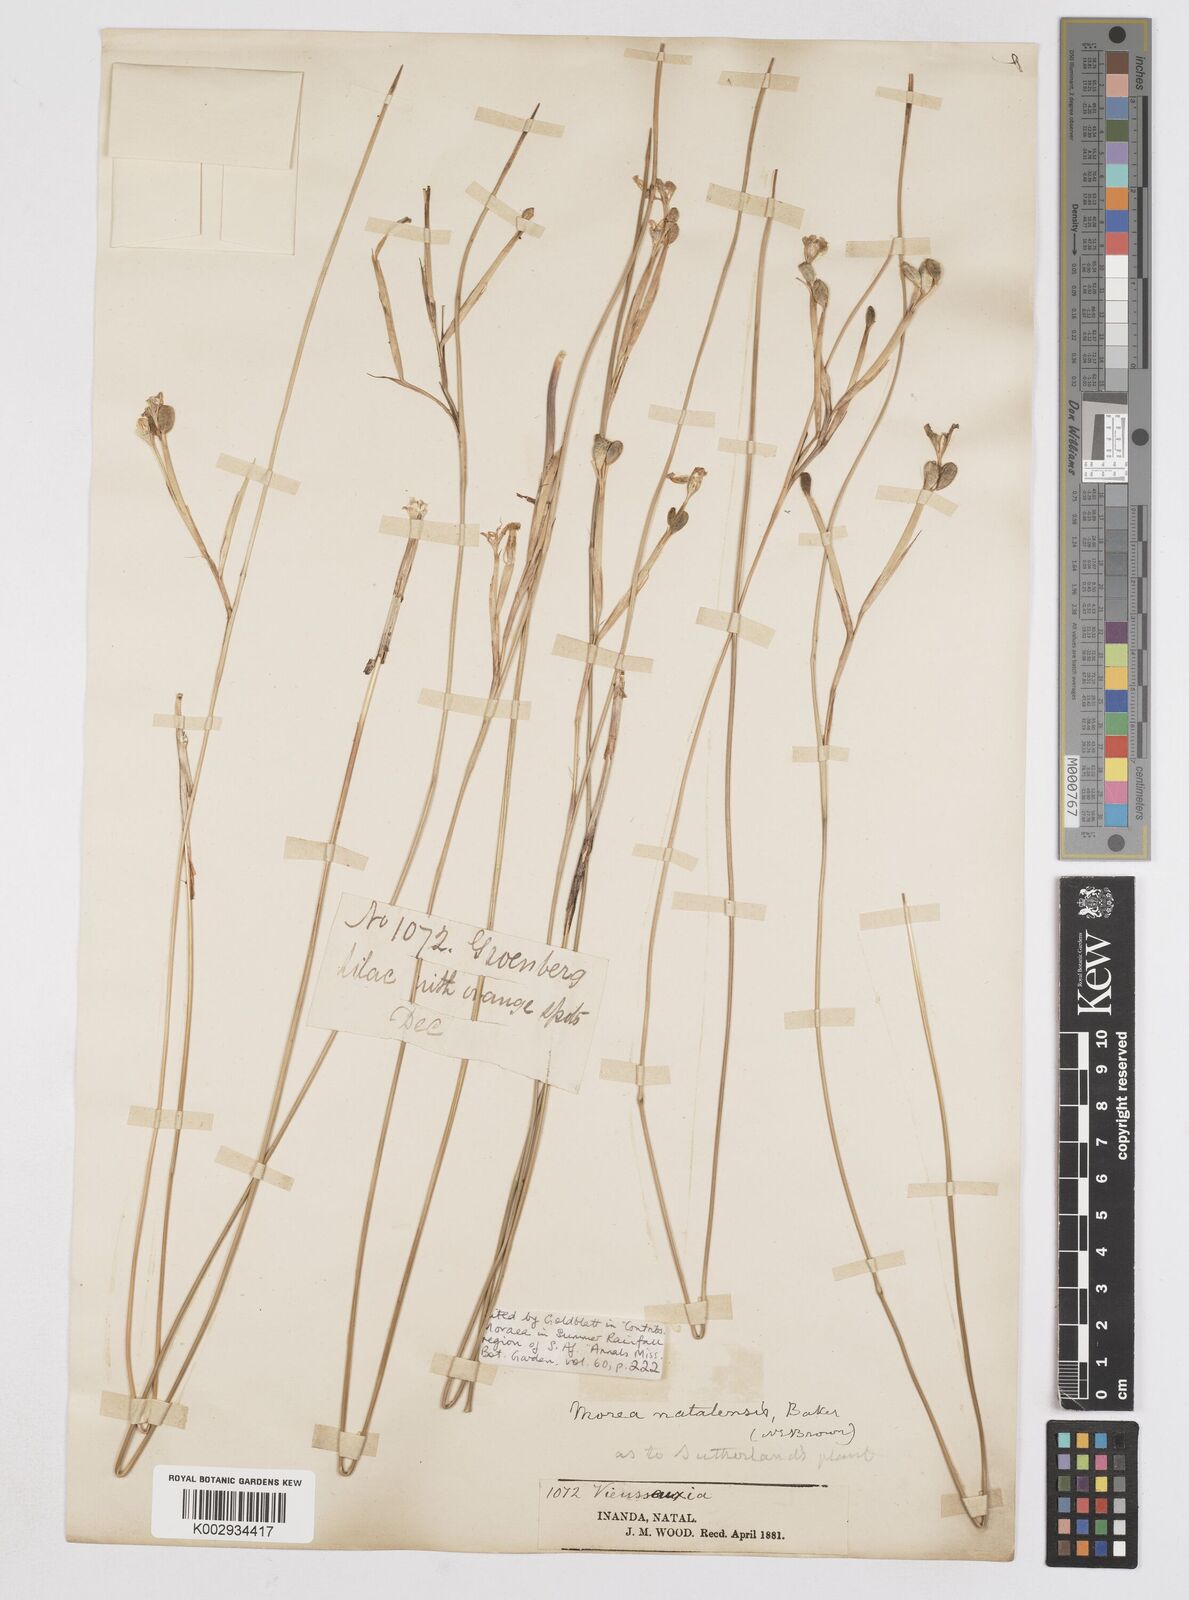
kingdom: Plantae
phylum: Tracheophyta
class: Liliopsida
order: Asparagales
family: Iridaceae
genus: Moraea
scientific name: Moraea natalensis
